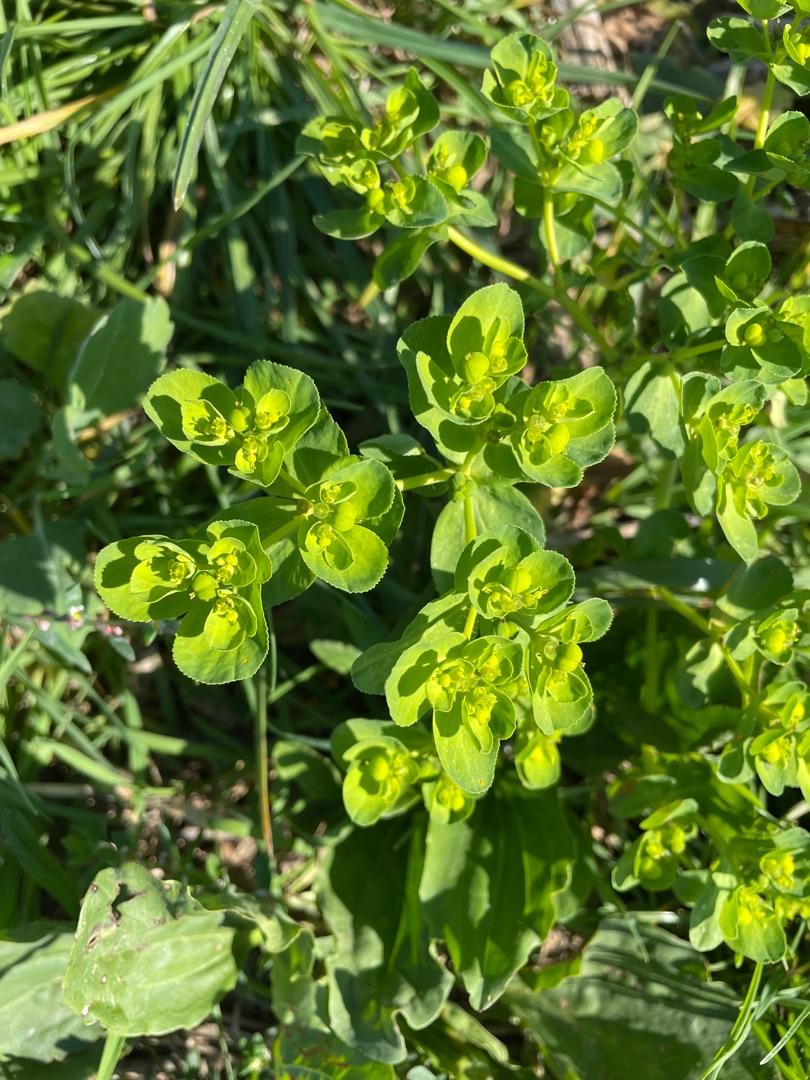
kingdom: Plantae
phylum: Tracheophyta
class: Magnoliopsida
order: Malpighiales
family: Euphorbiaceae
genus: Euphorbia
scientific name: Euphorbia helioscopia
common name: Skærm-vortemælk
